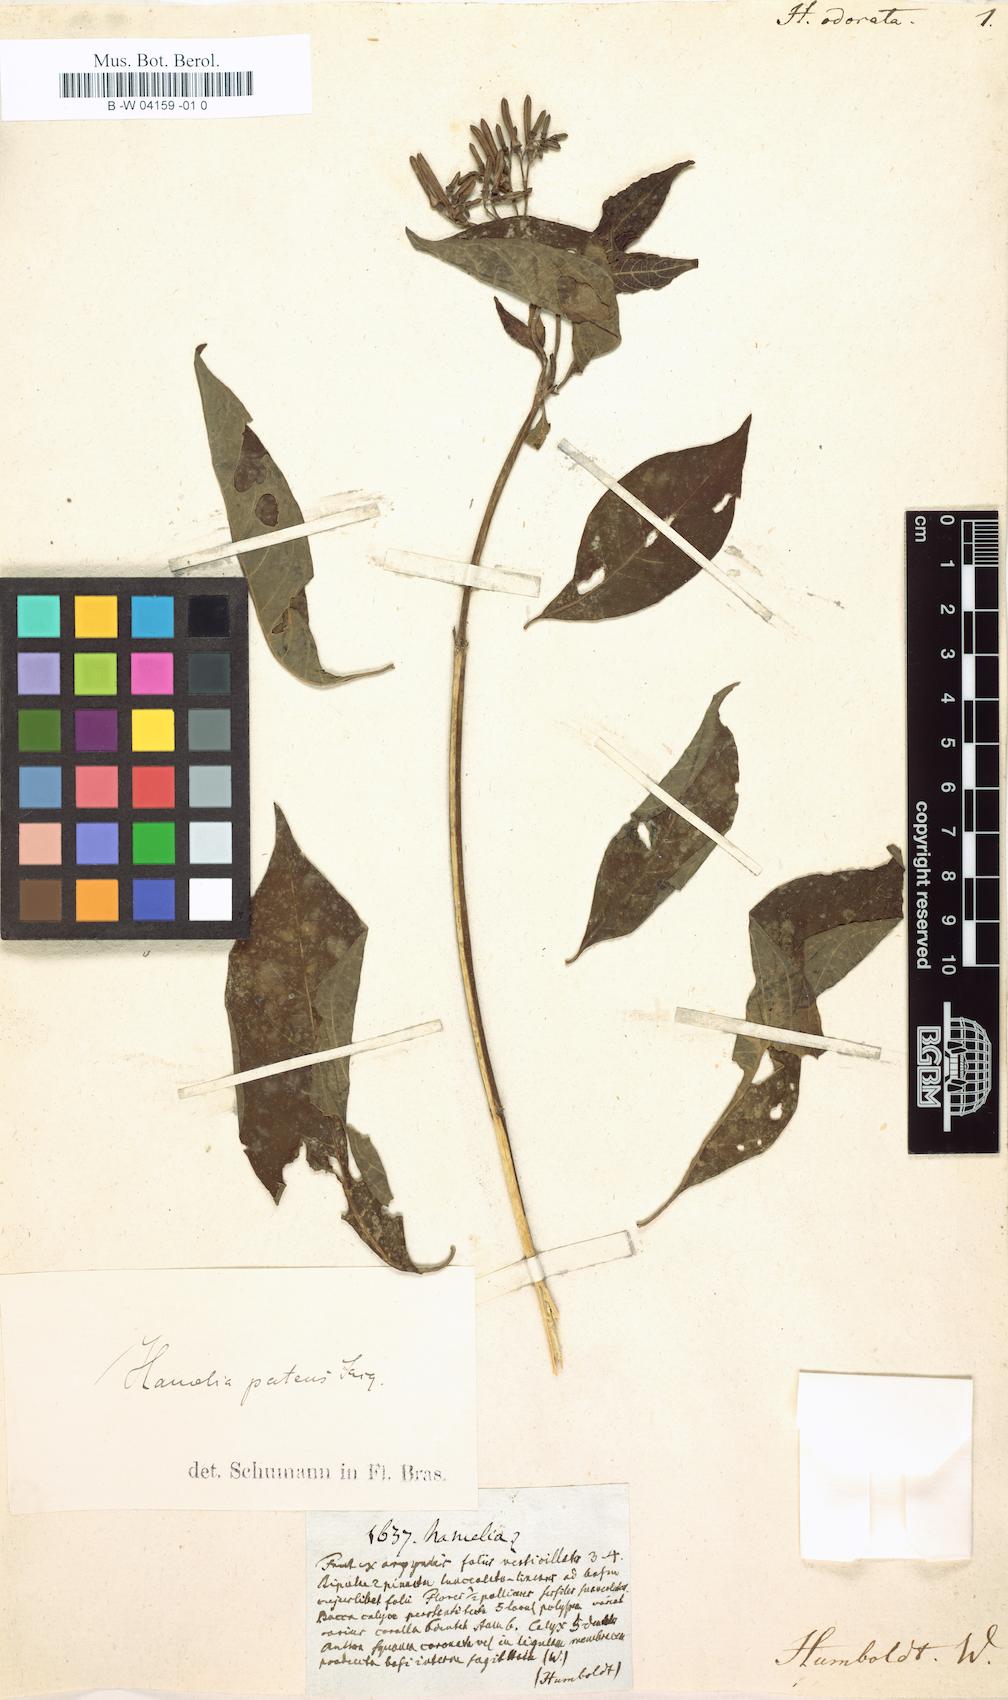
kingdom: Plantae
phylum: Tracheophyta
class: Magnoliopsida
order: Gentianales
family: Rubiaceae
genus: Hamelia
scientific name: Hamelia odorata
